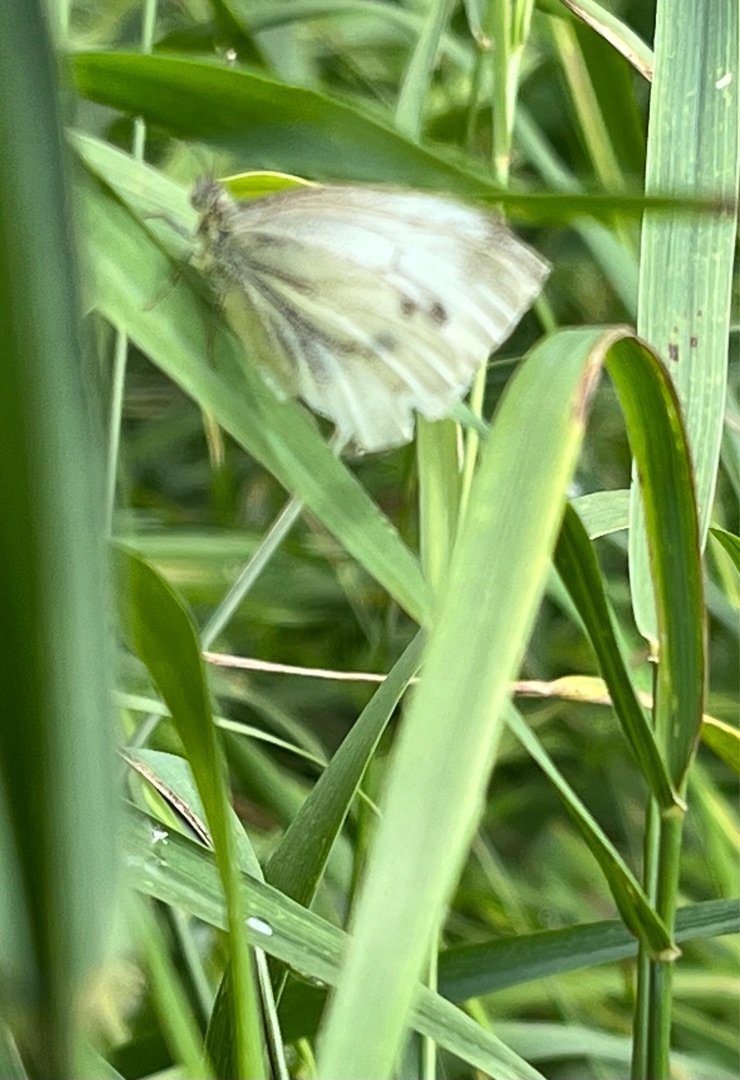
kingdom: Animalia
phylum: Arthropoda
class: Insecta
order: Lepidoptera
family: Pieridae
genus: Pieris
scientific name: Pieris napi
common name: Grønåret kålsommerfugl
